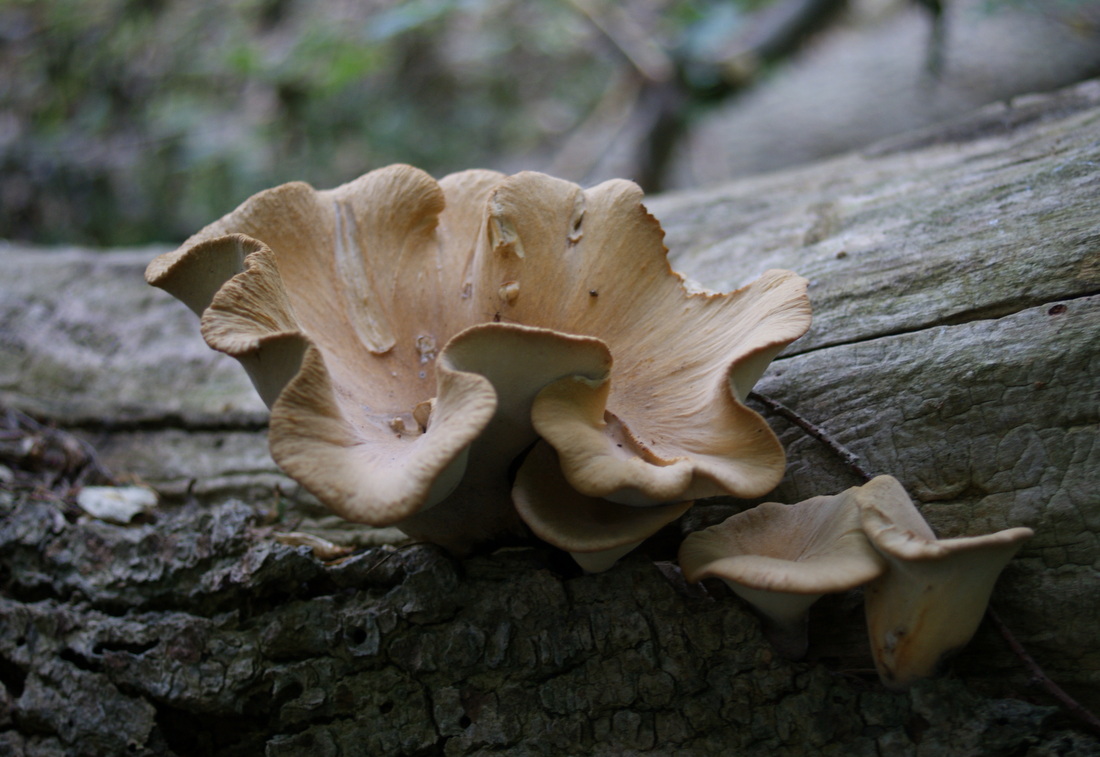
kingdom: Fungi
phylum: Basidiomycota
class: Agaricomycetes
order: Polyporales
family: Polyporaceae
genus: Cerioporus
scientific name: Cerioporus varius
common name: foranderlig stilkporesvamp
